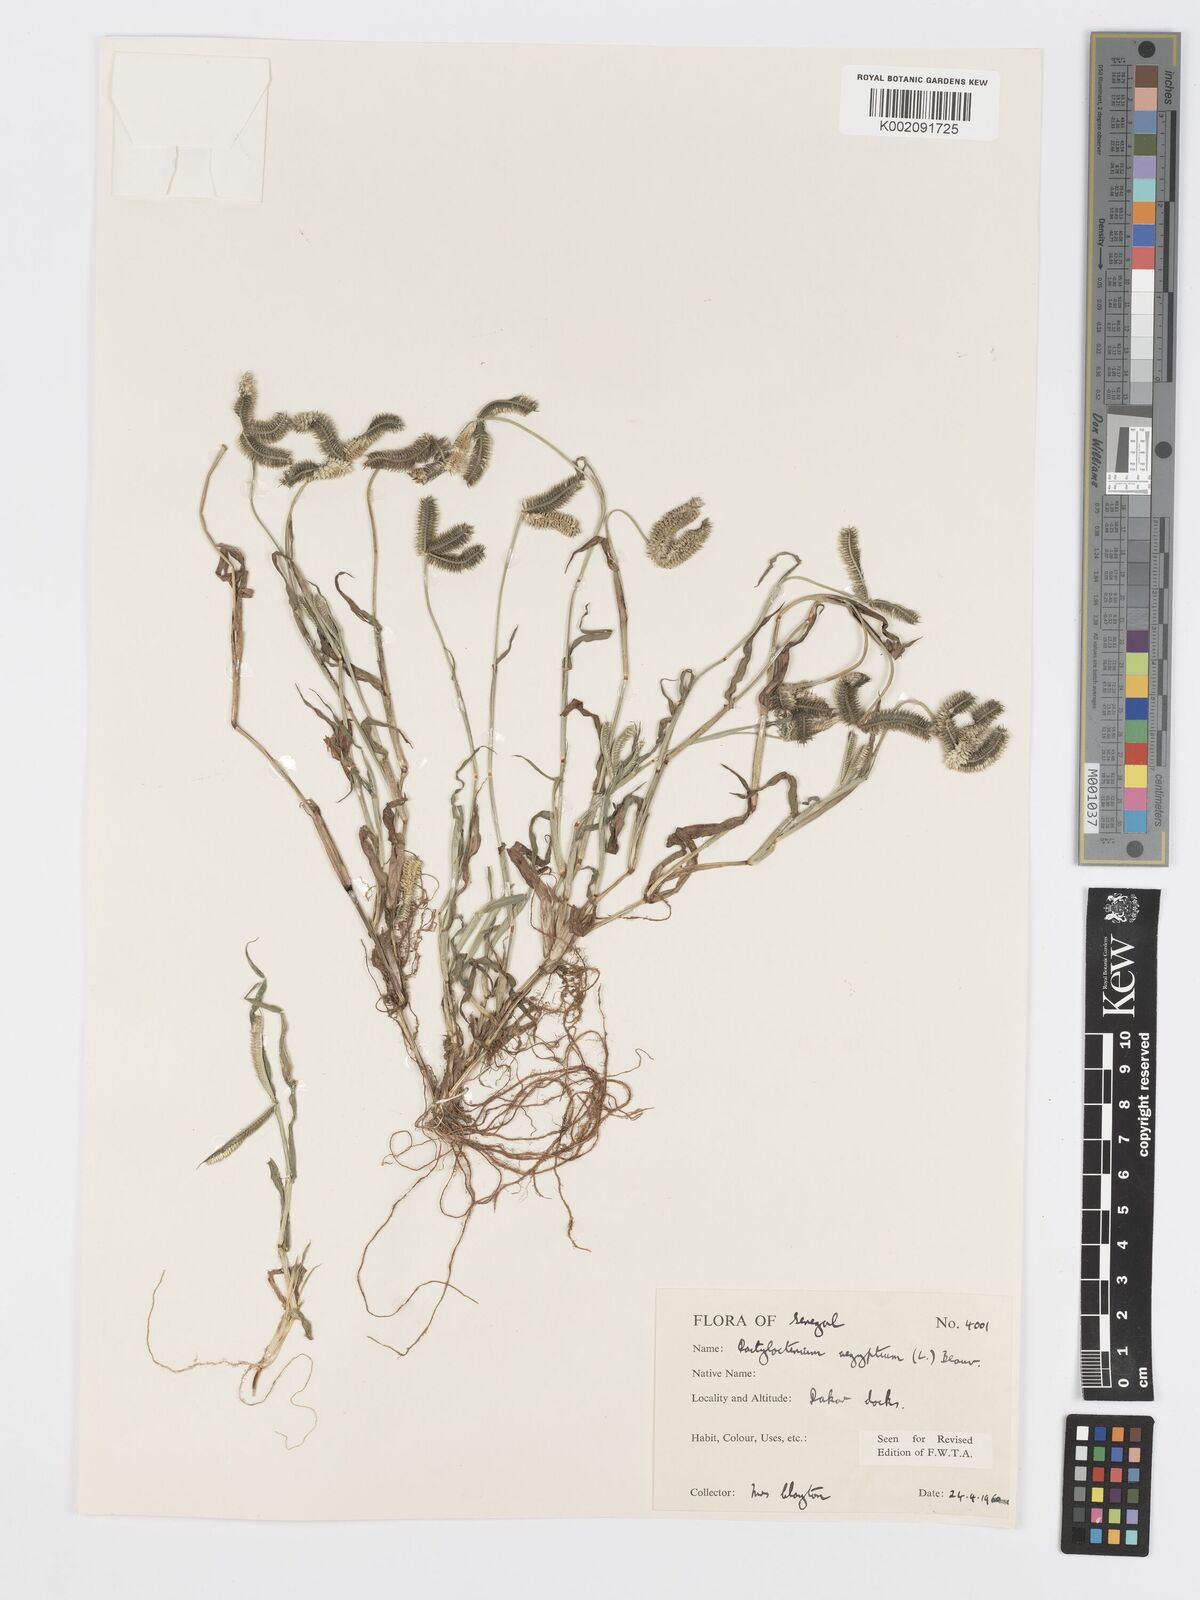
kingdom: Plantae
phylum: Tracheophyta
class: Liliopsida
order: Poales
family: Poaceae
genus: Dactyloctenium
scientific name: Dactyloctenium aegyptium
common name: Egyptian grass
